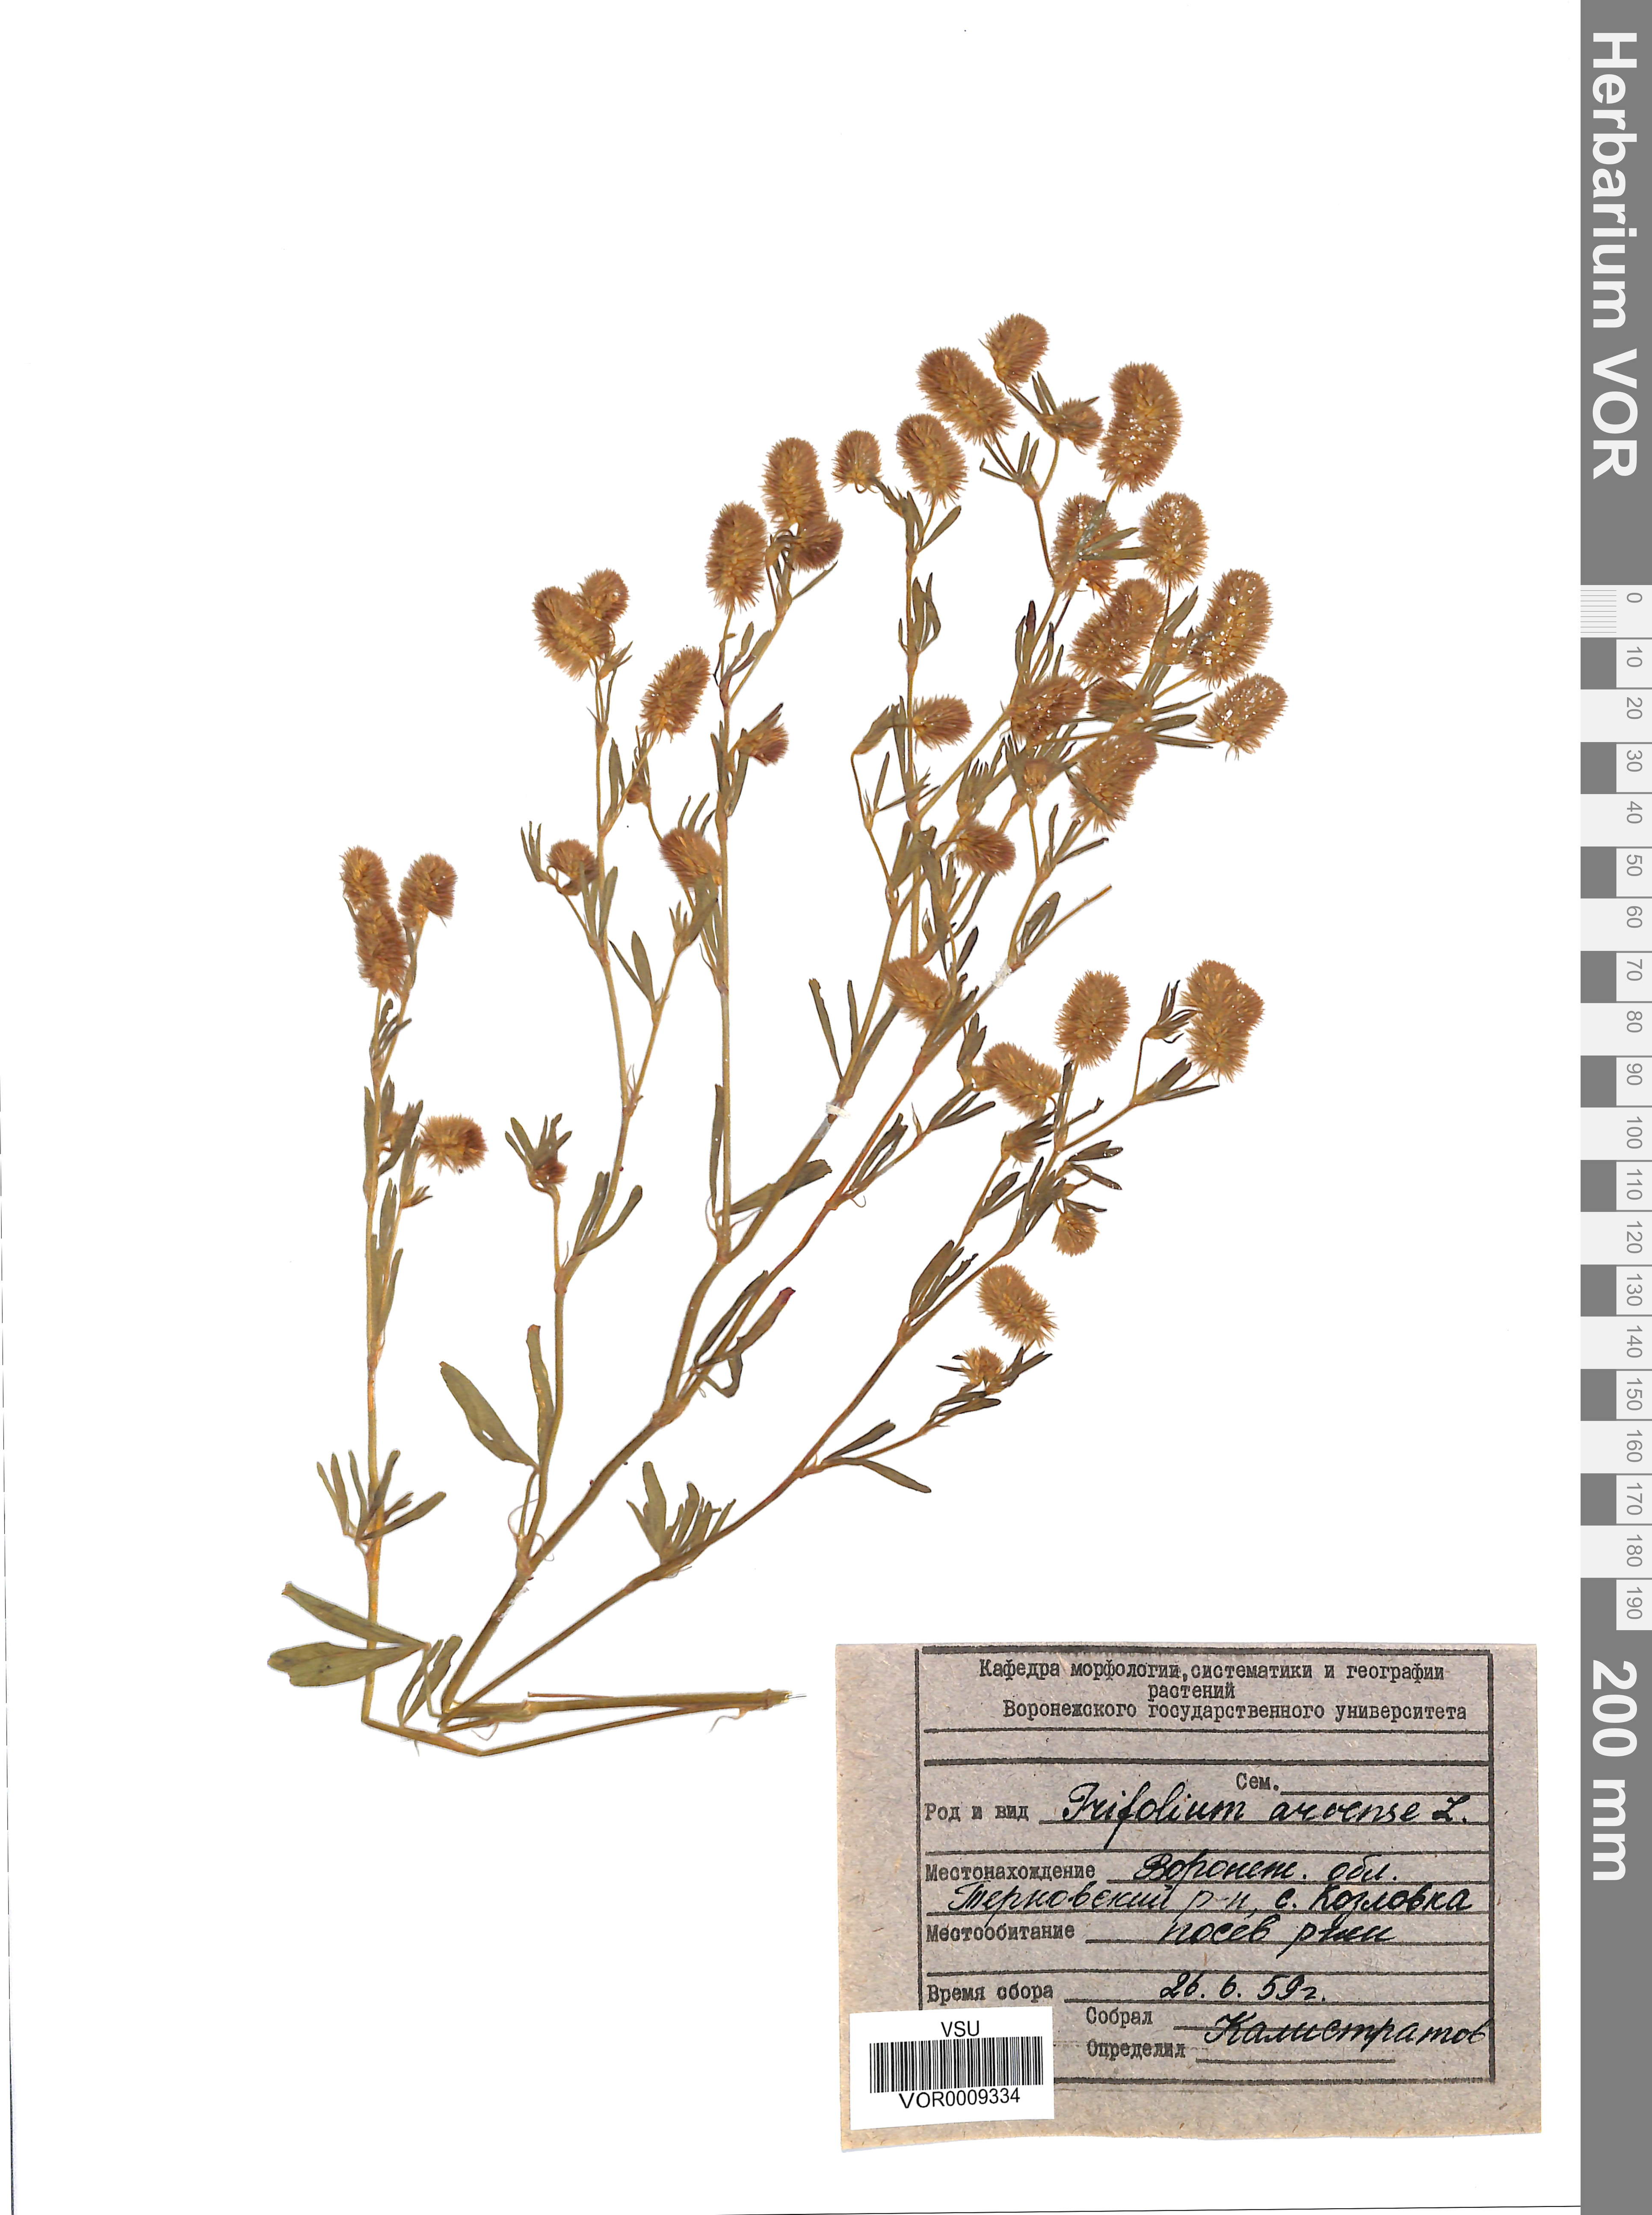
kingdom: Plantae
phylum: Tracheophyta
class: Magnoliopsida
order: Fabales
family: Fabaceae
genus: Trifolium
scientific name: Trifolium arvense
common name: Hare's-foot clover
